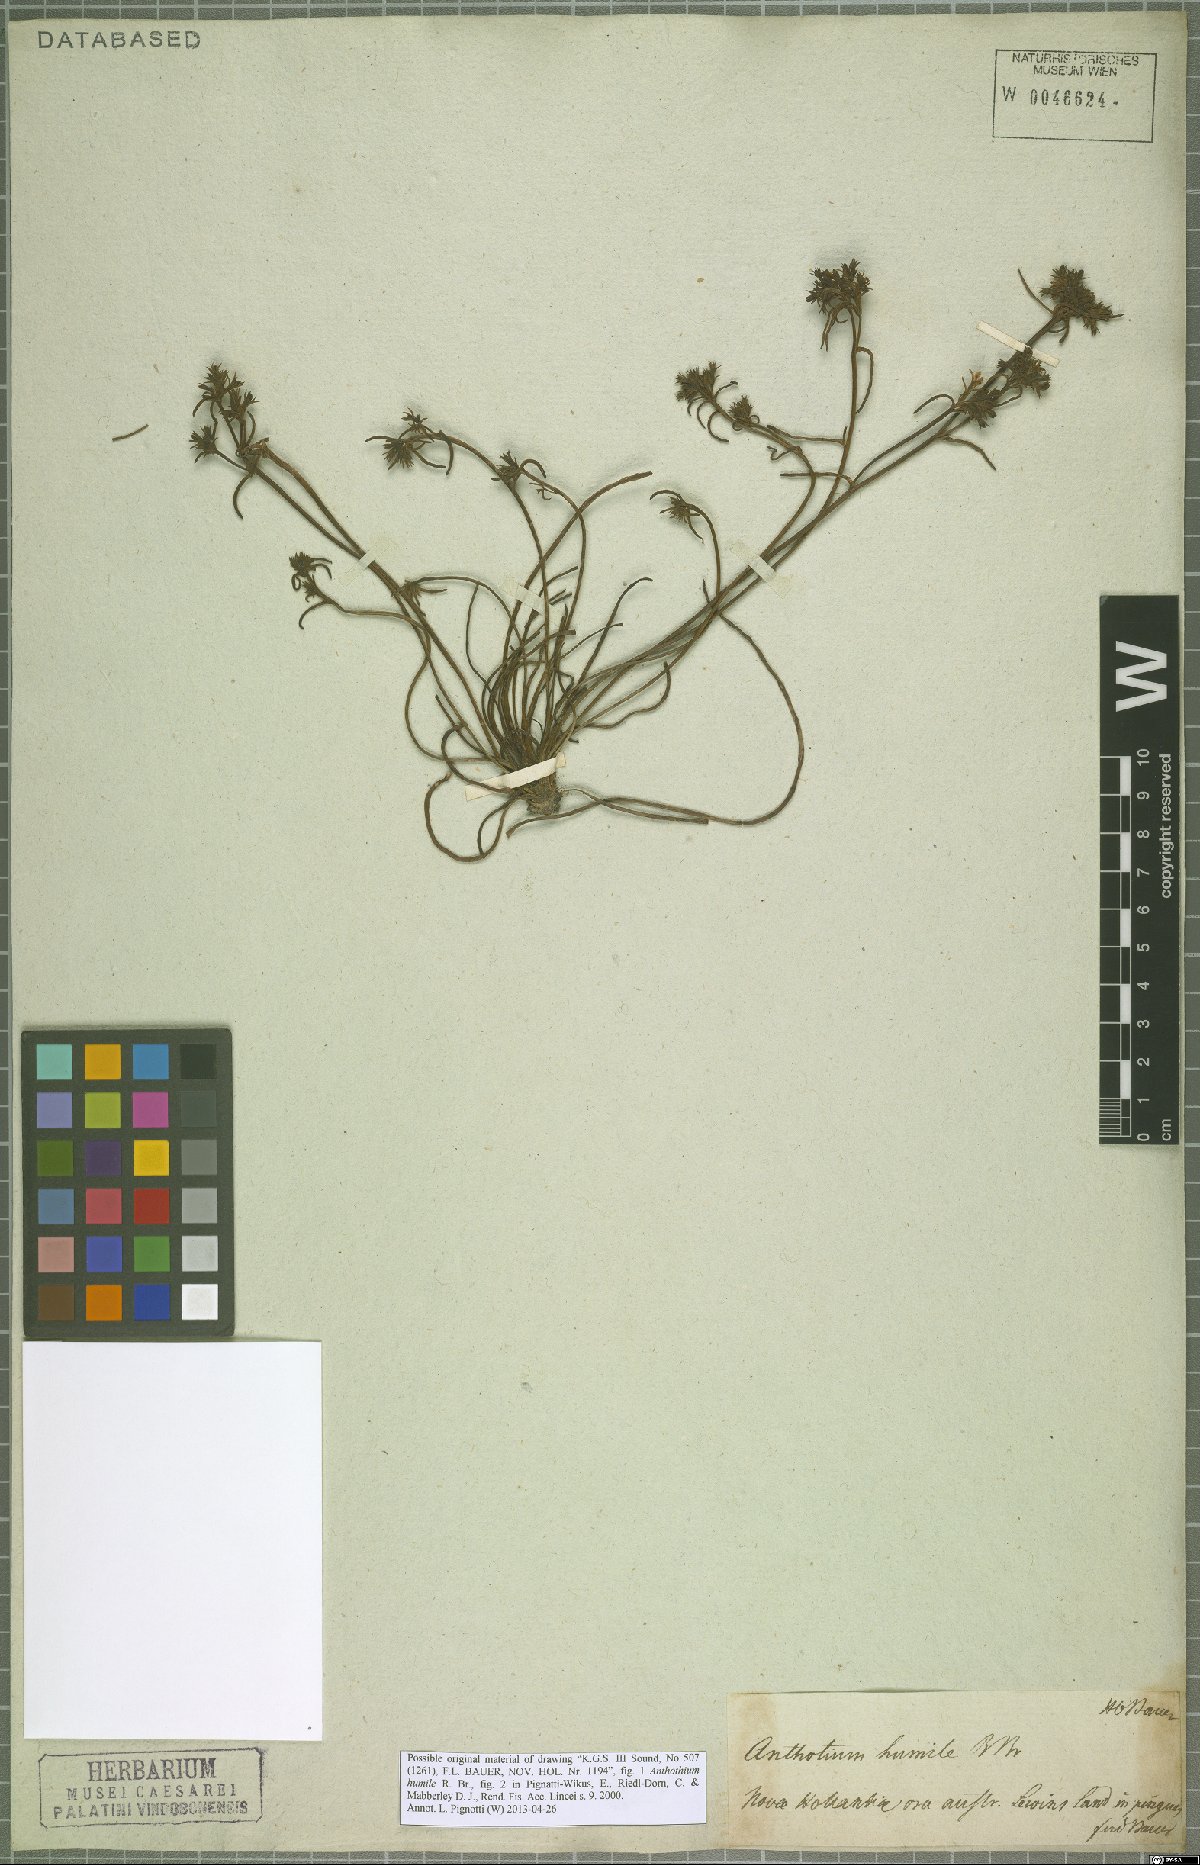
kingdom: Plantae
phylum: Tracheophyta
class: Magnoliopsida
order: Asterales
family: Goodeniaceae
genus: Anthotium
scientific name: Anthotium humile
